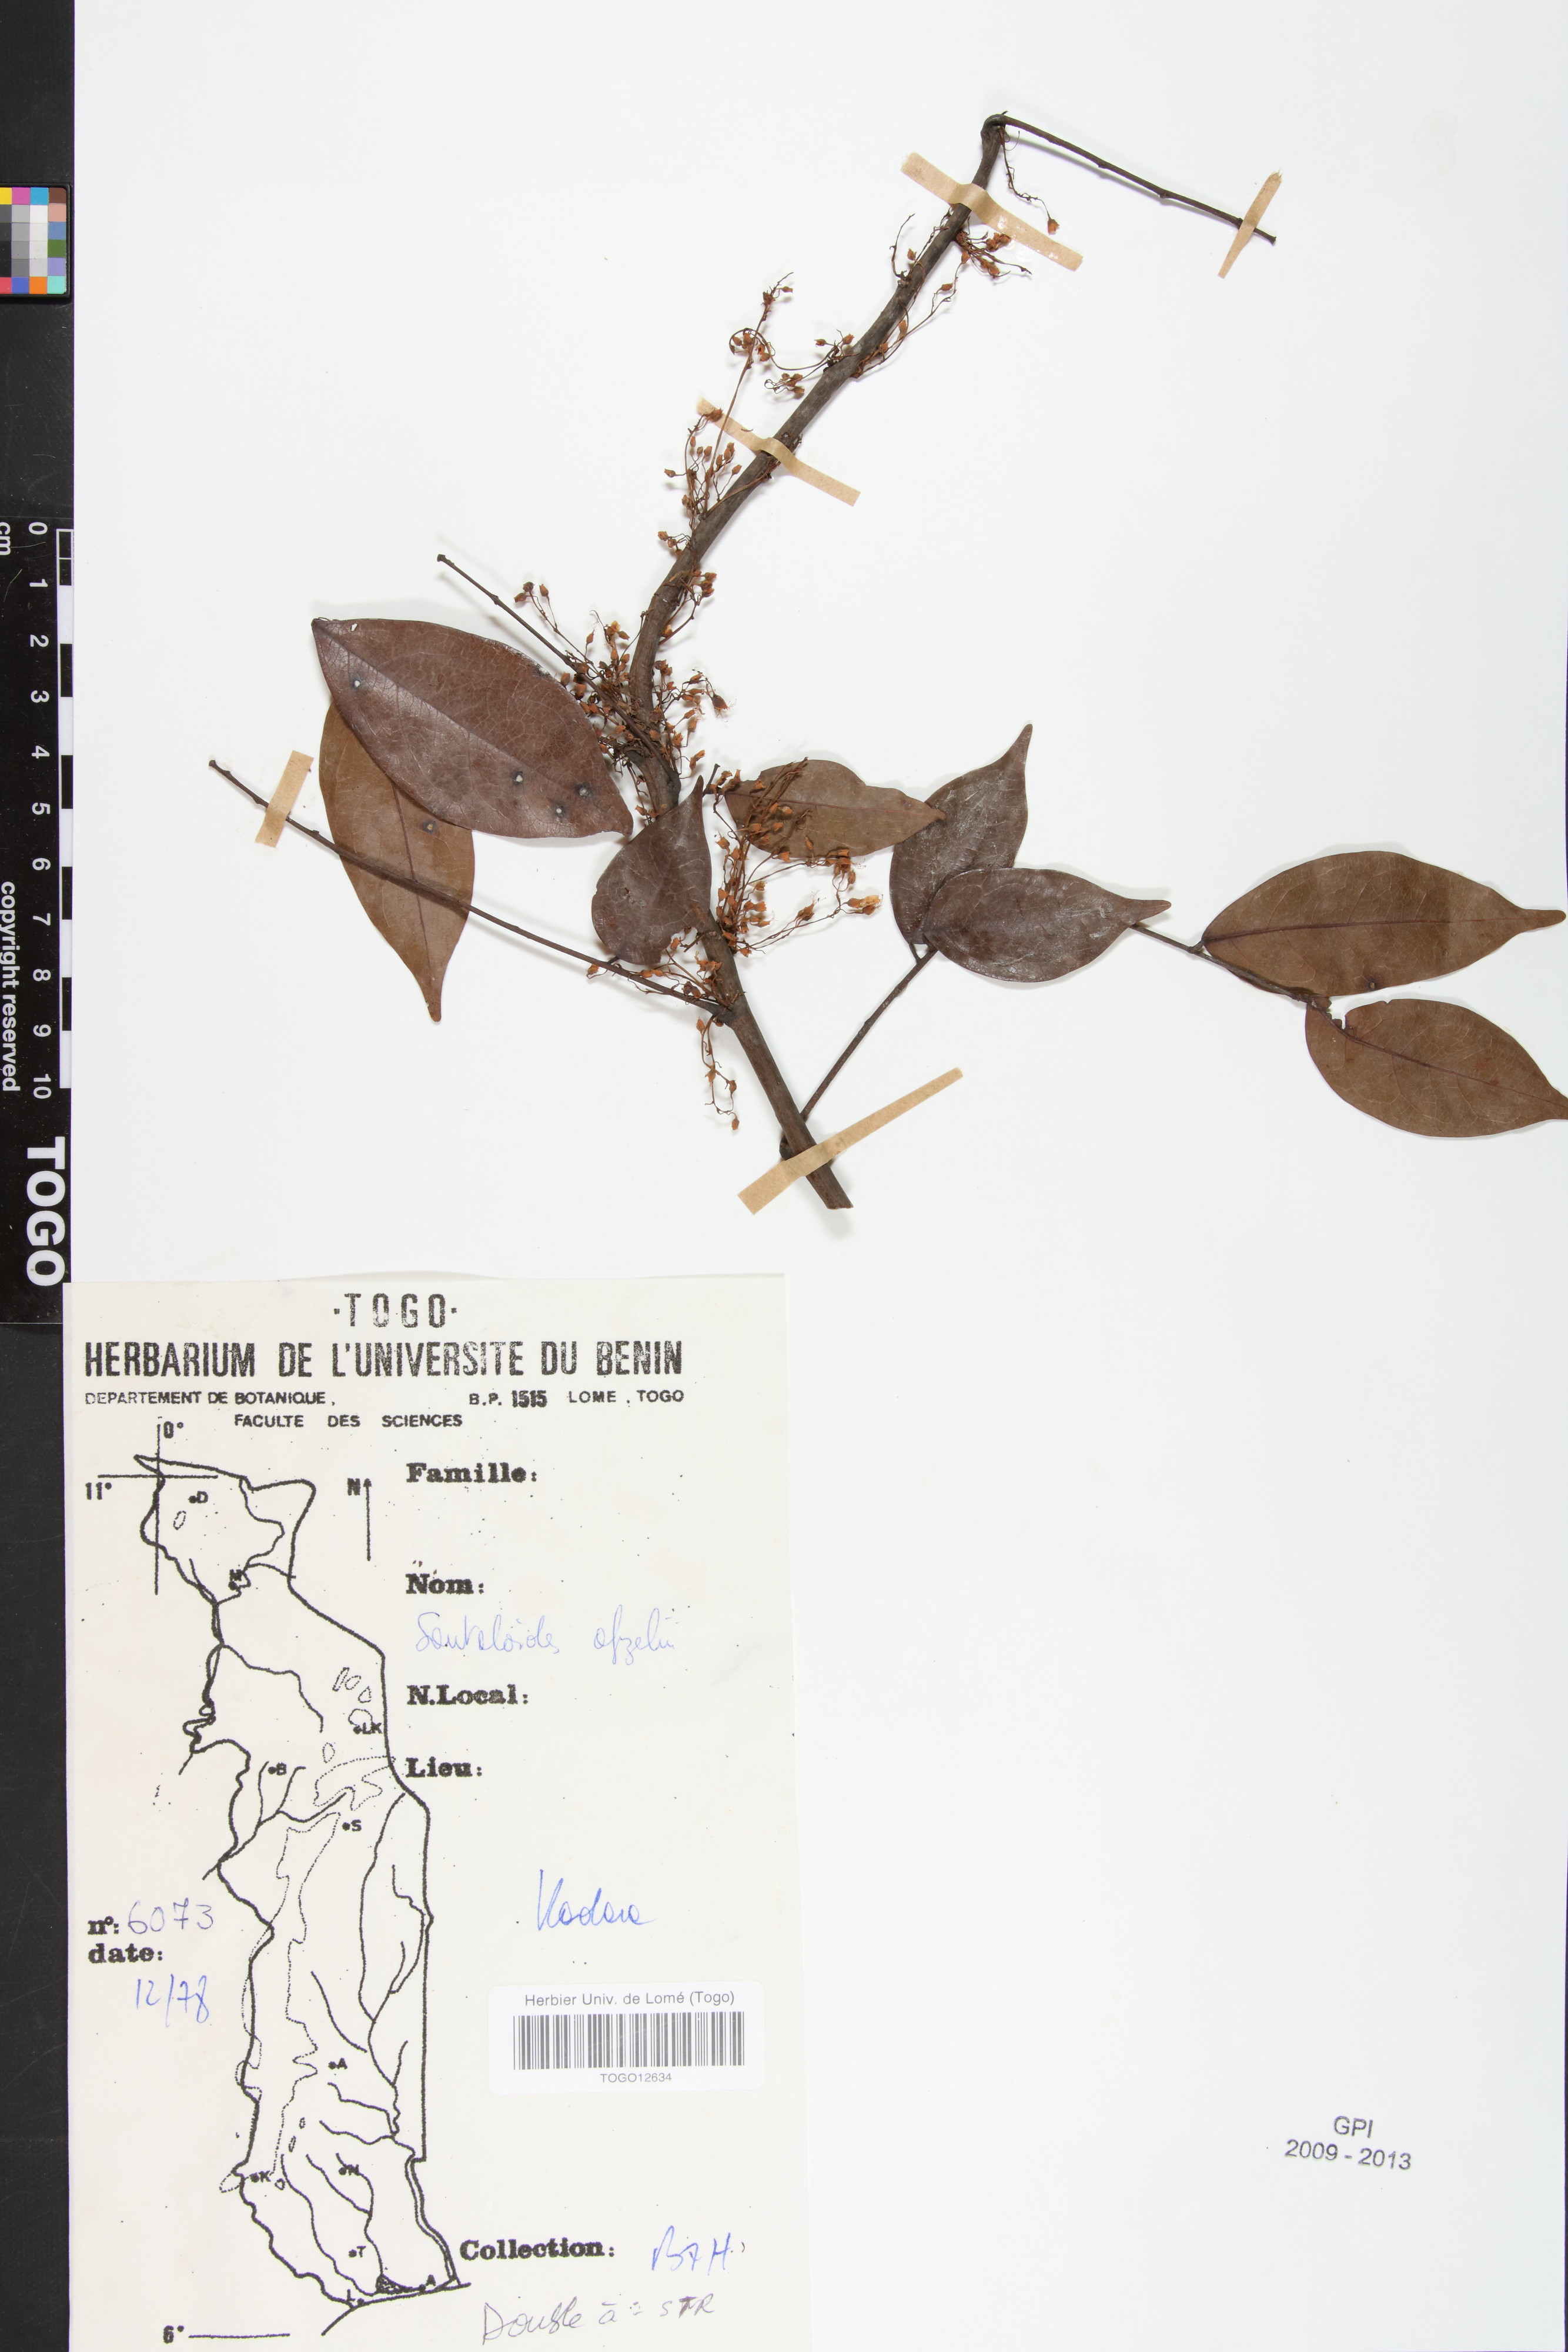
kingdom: Plantae
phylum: Tracheophyta
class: Magnoliopsida
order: Oxalidales
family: Connaraceae
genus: Rourea
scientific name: Rourea minor
